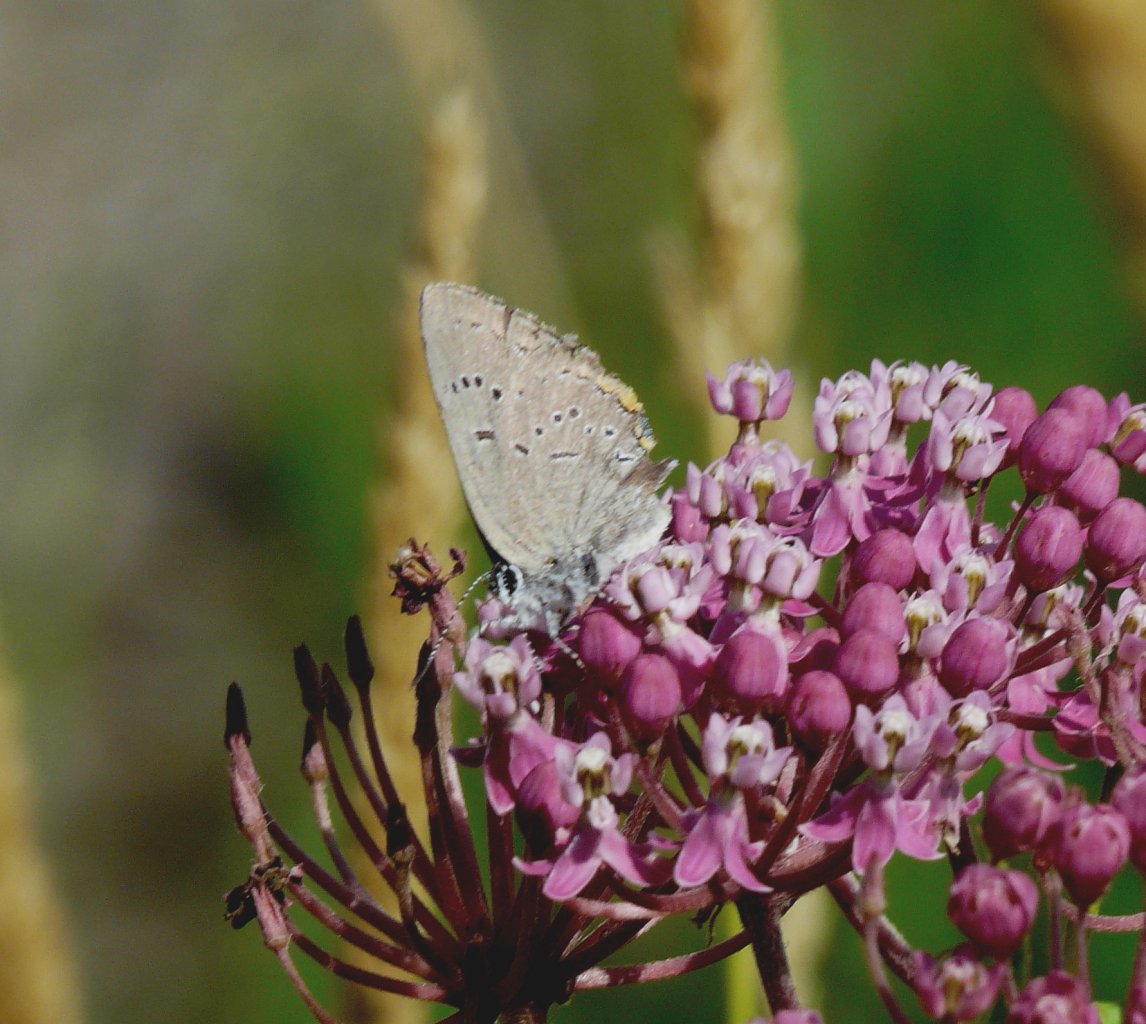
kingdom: Animalia
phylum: Arthropoda
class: Insecta
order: Lepidoptera
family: Lycaenidae
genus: Strymon
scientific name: Strymon acadica
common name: Acadian Hairstreak
